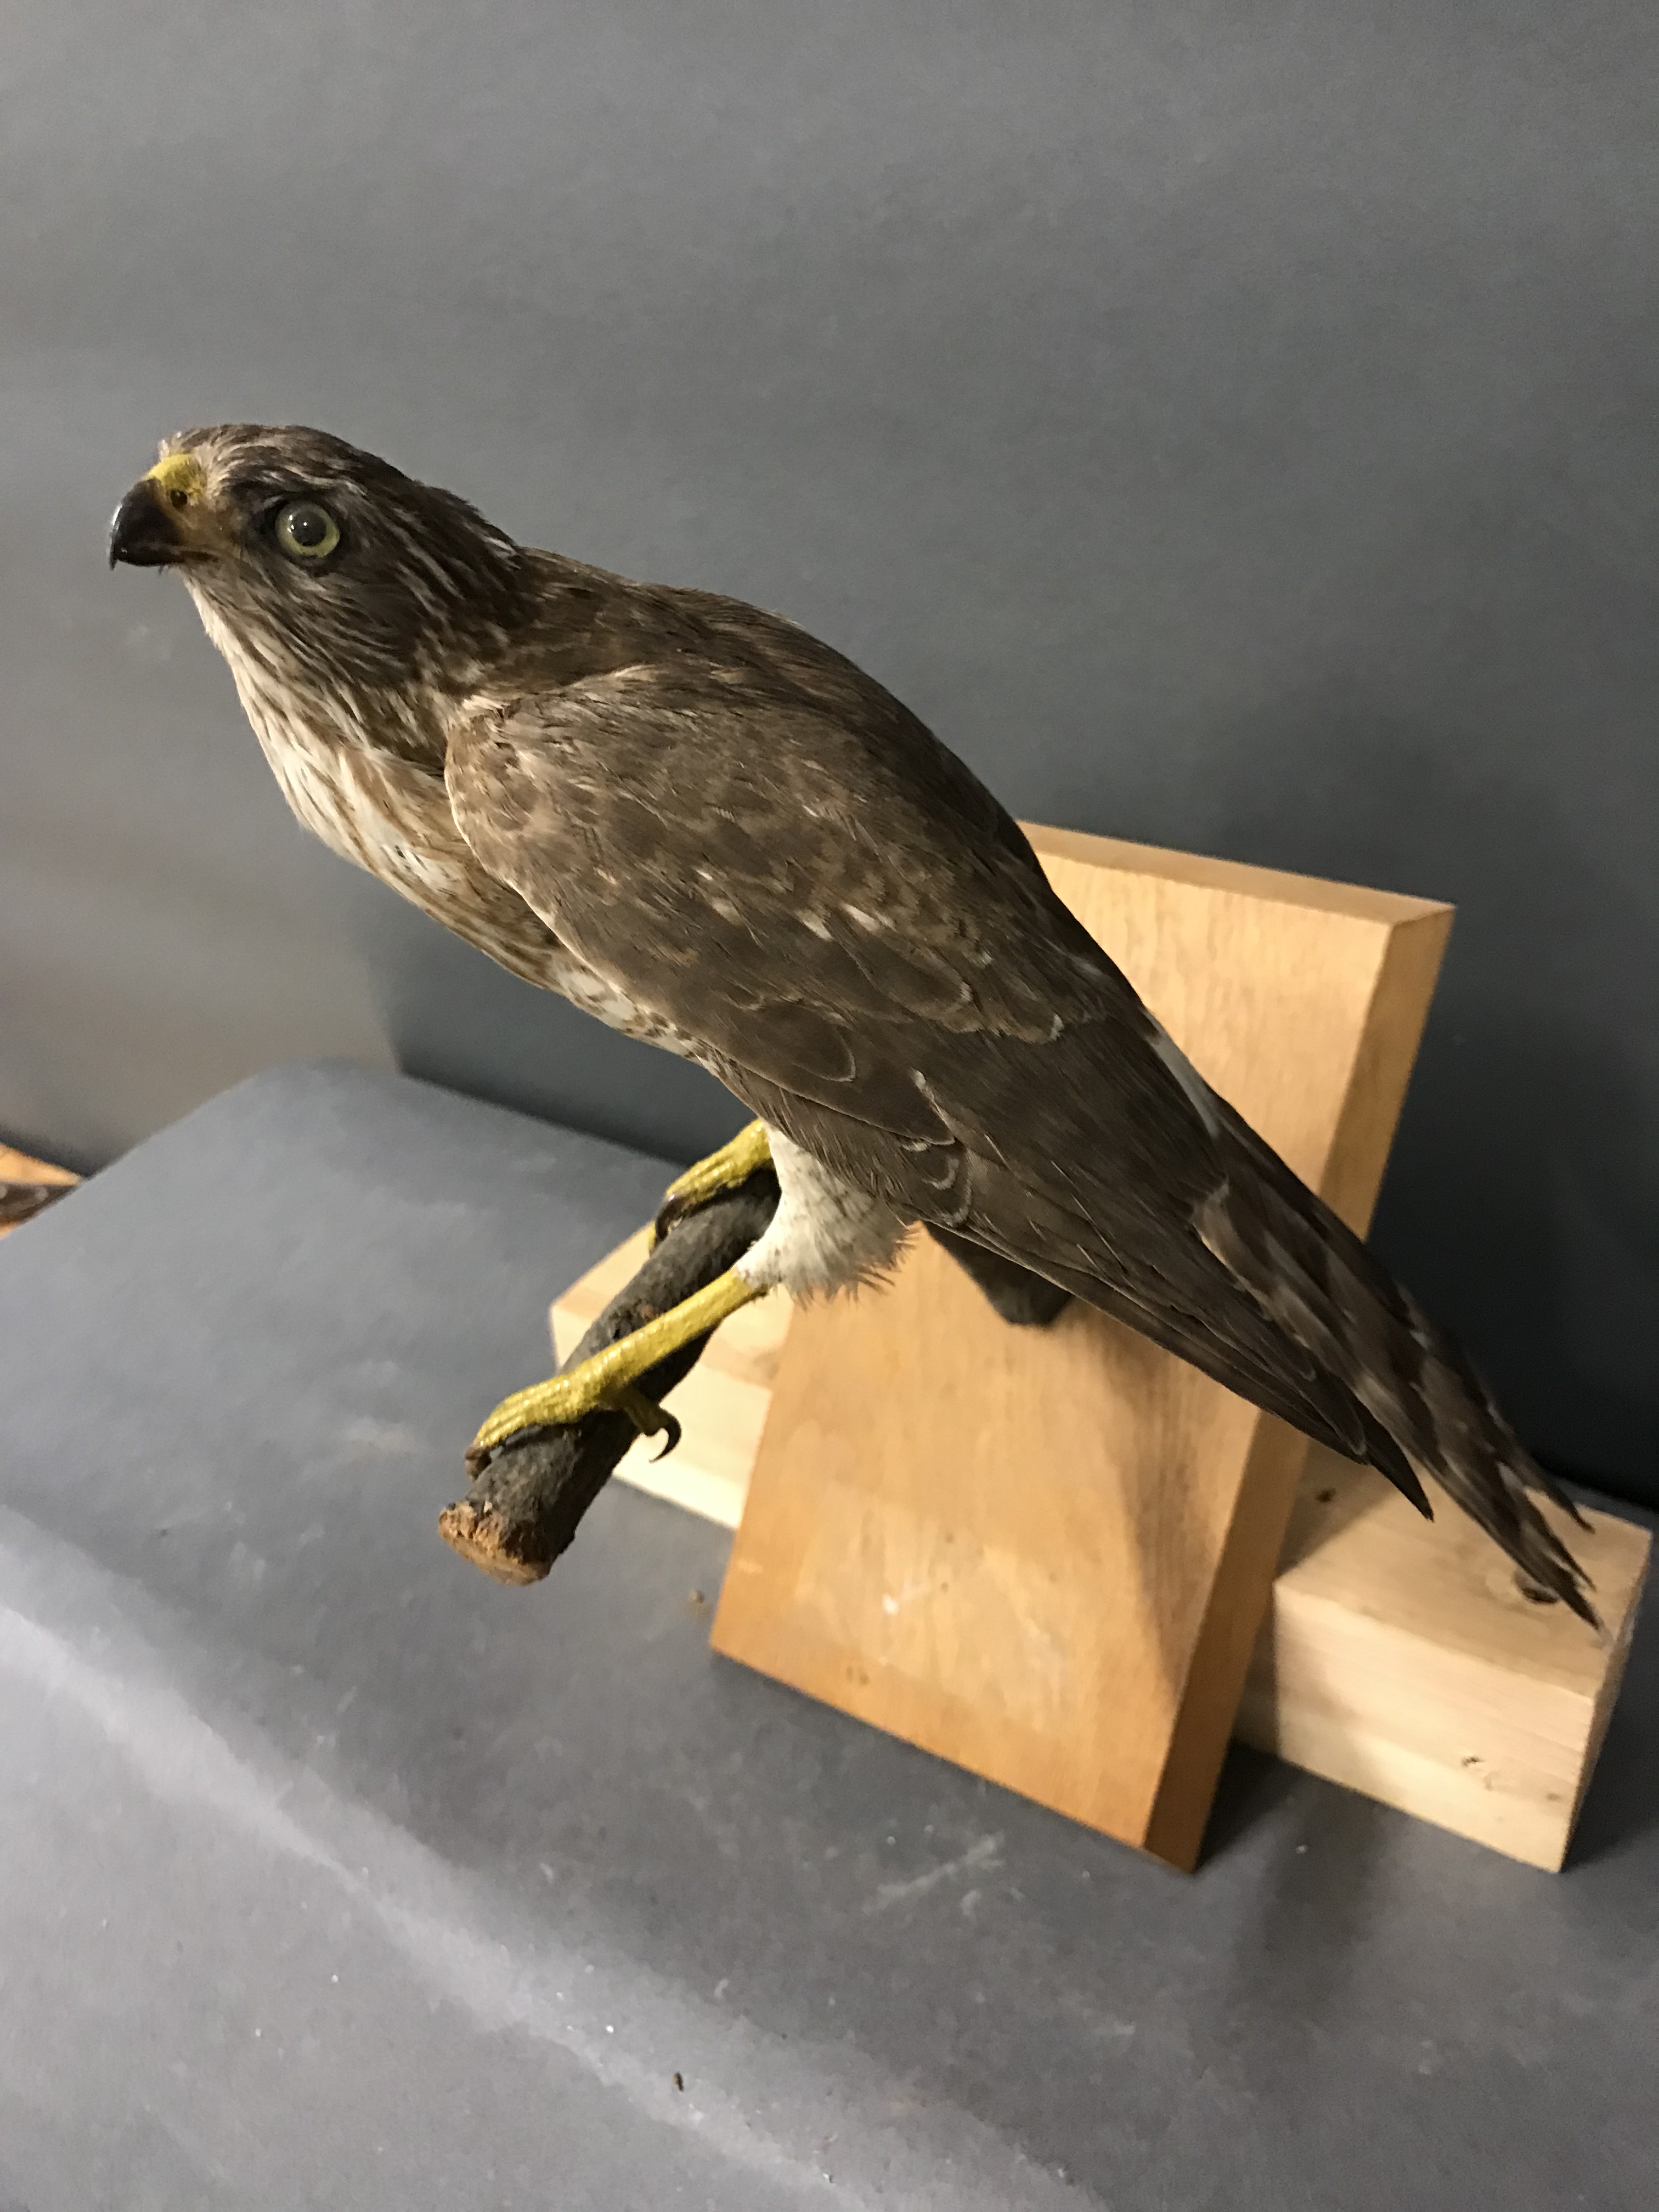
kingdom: Animalia
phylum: Chordata
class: Aves
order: Accipitriformes
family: Accipitridae
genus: Micronisus
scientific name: Micronisus gabar
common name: Gabar goshawk
